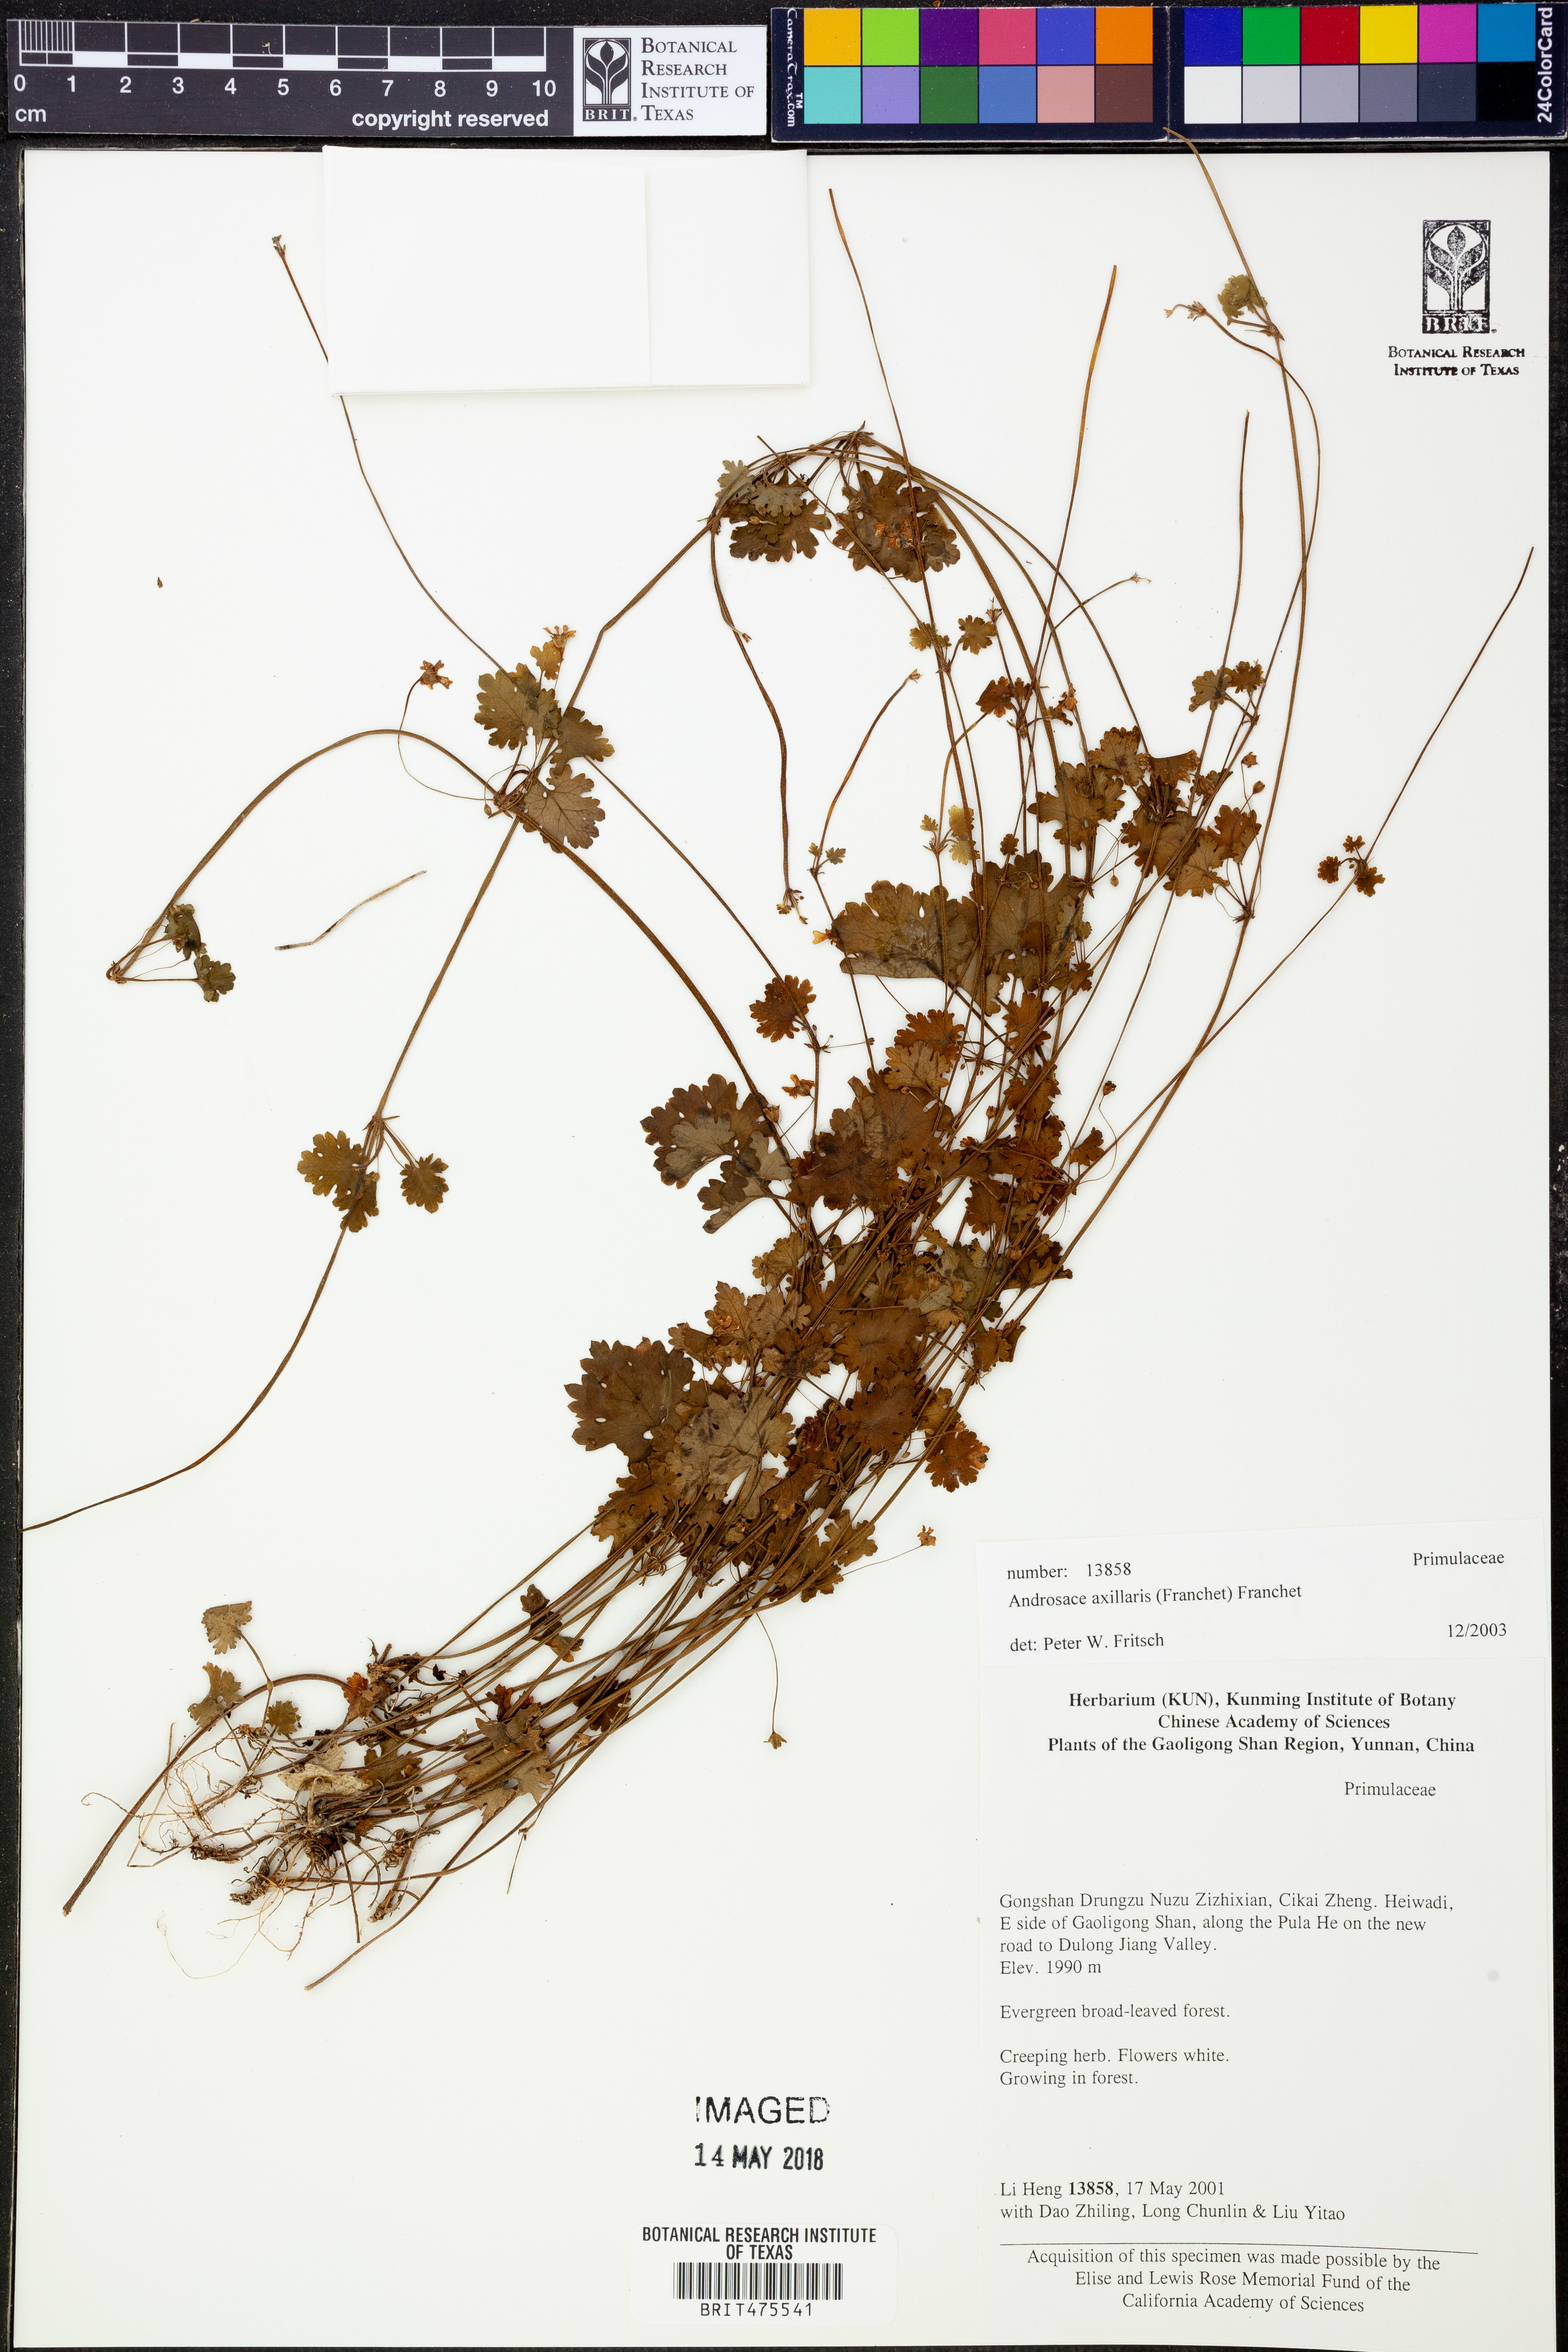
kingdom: Plantae
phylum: Tracheophyta
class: Magnoliopsida
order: Ericales
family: Primulaceae
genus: Androsace
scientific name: Androsace axillaris
